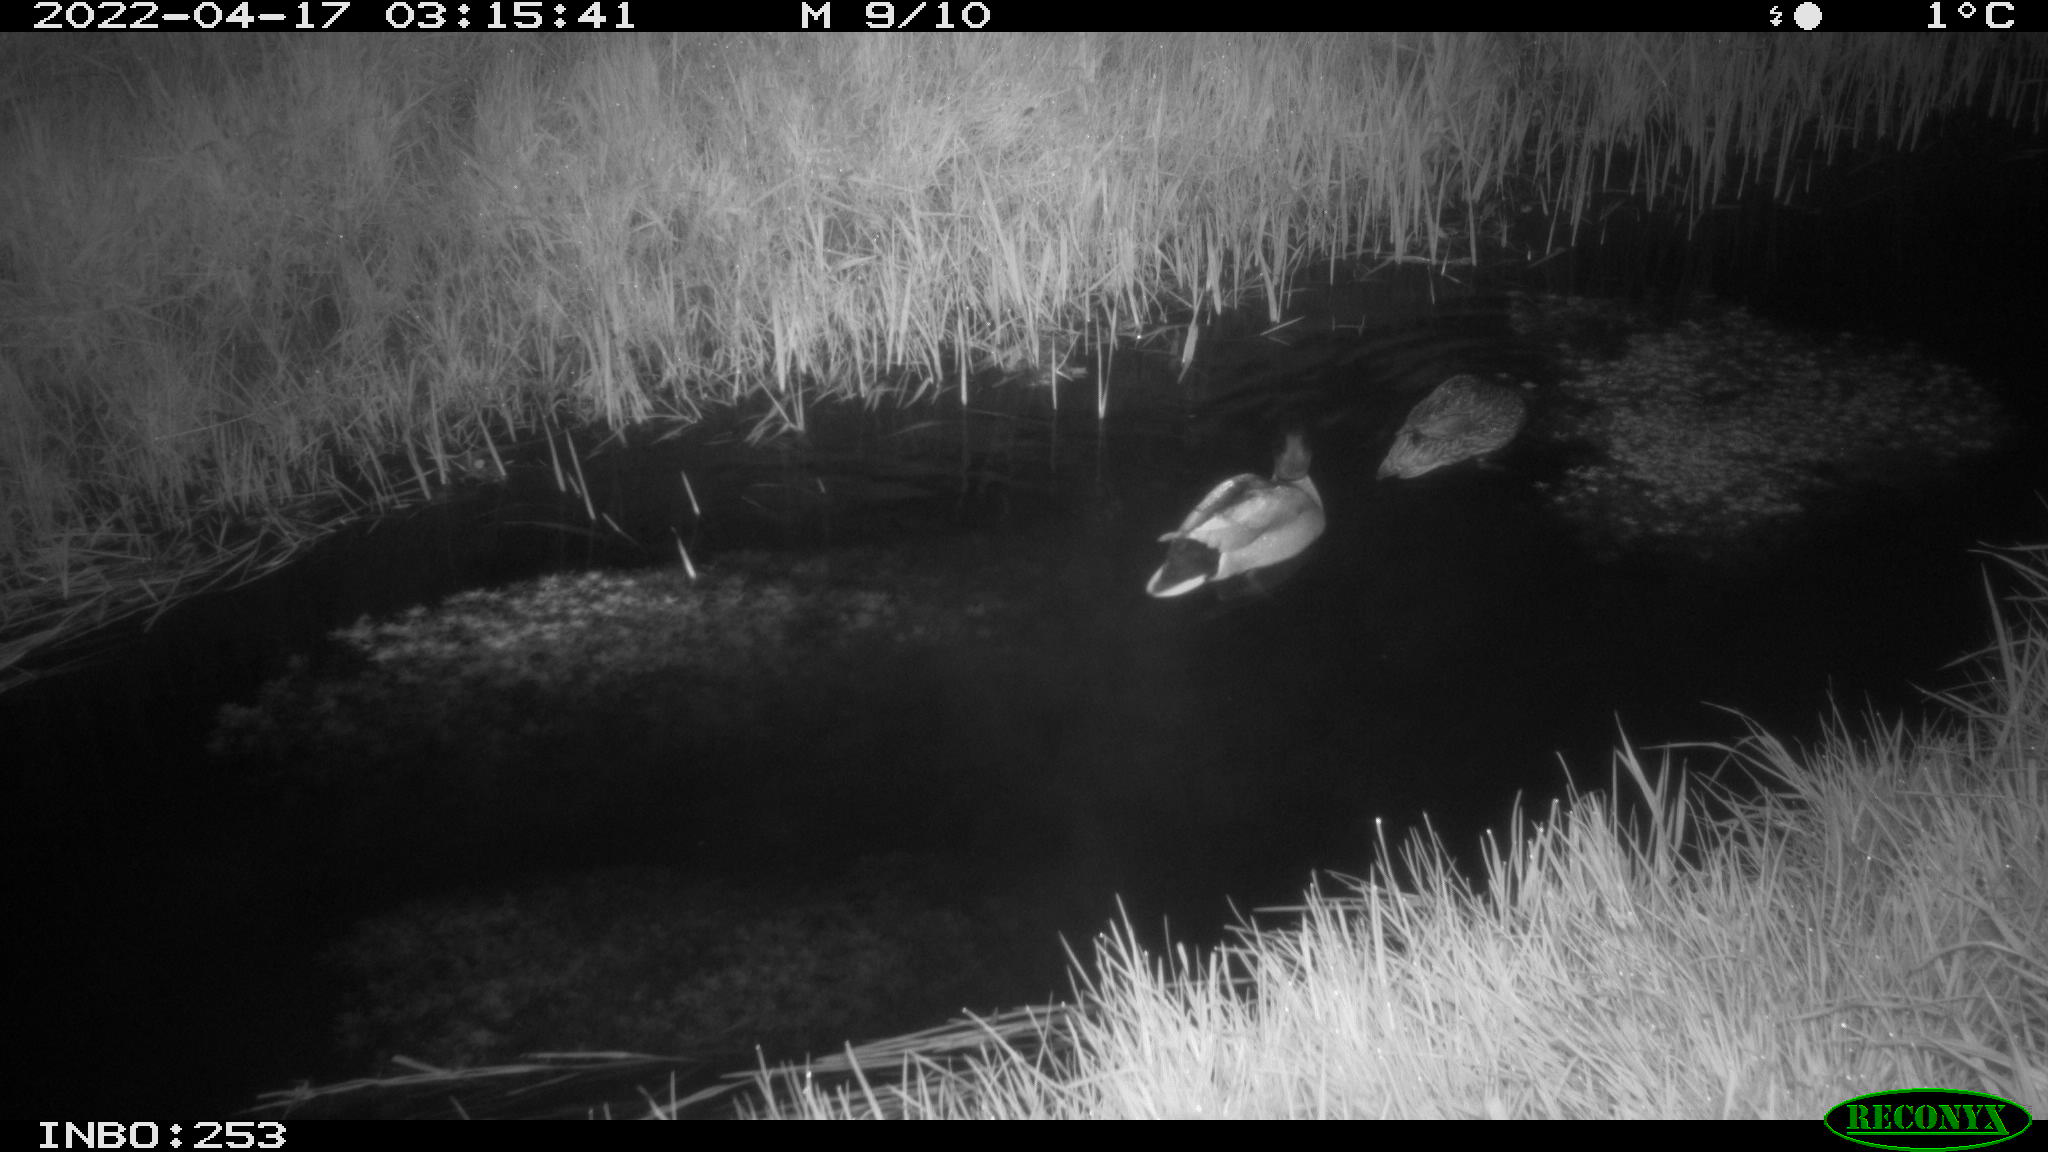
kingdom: Animalia
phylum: Chordata
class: Aves
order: Anseriformes
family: Anatidae
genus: Anas
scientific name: Anas platyrhynchos
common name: Mallard
